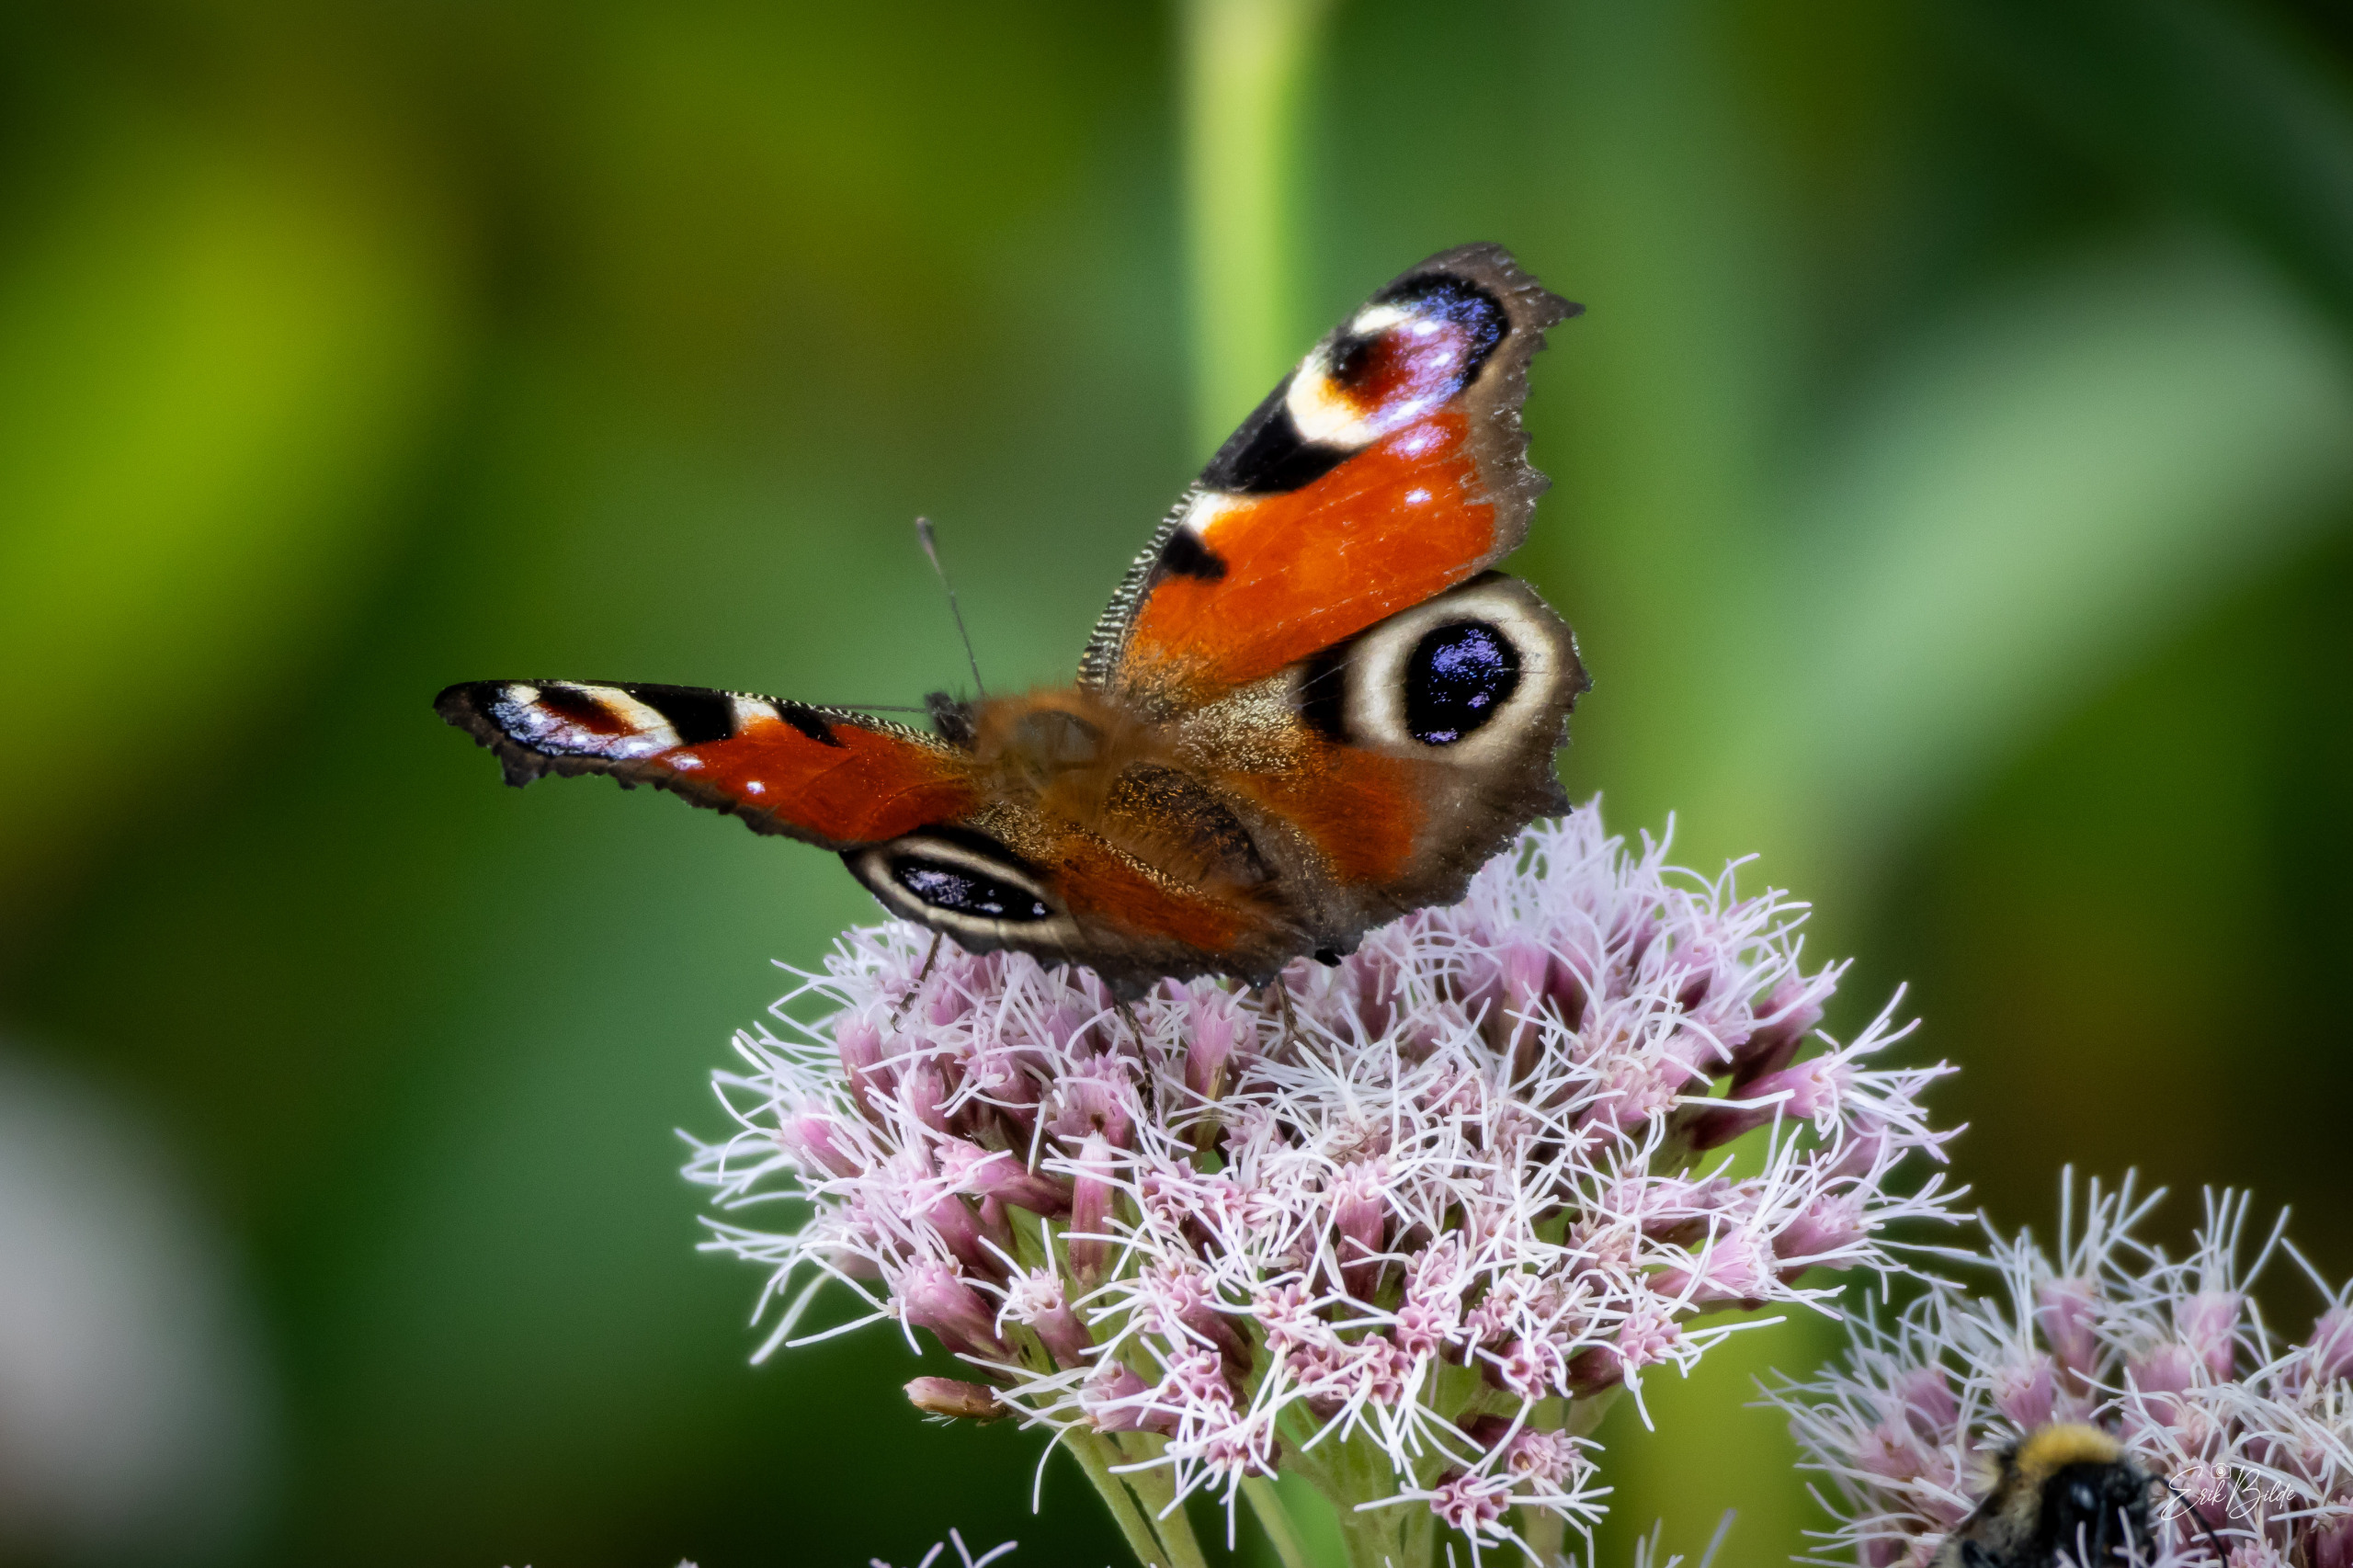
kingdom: Animalia
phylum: Arthropoda
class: Insecta
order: Lepidoptera
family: Nymphalidae
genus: Aglais
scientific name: Aglais io
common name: Dagpåfugleøje
